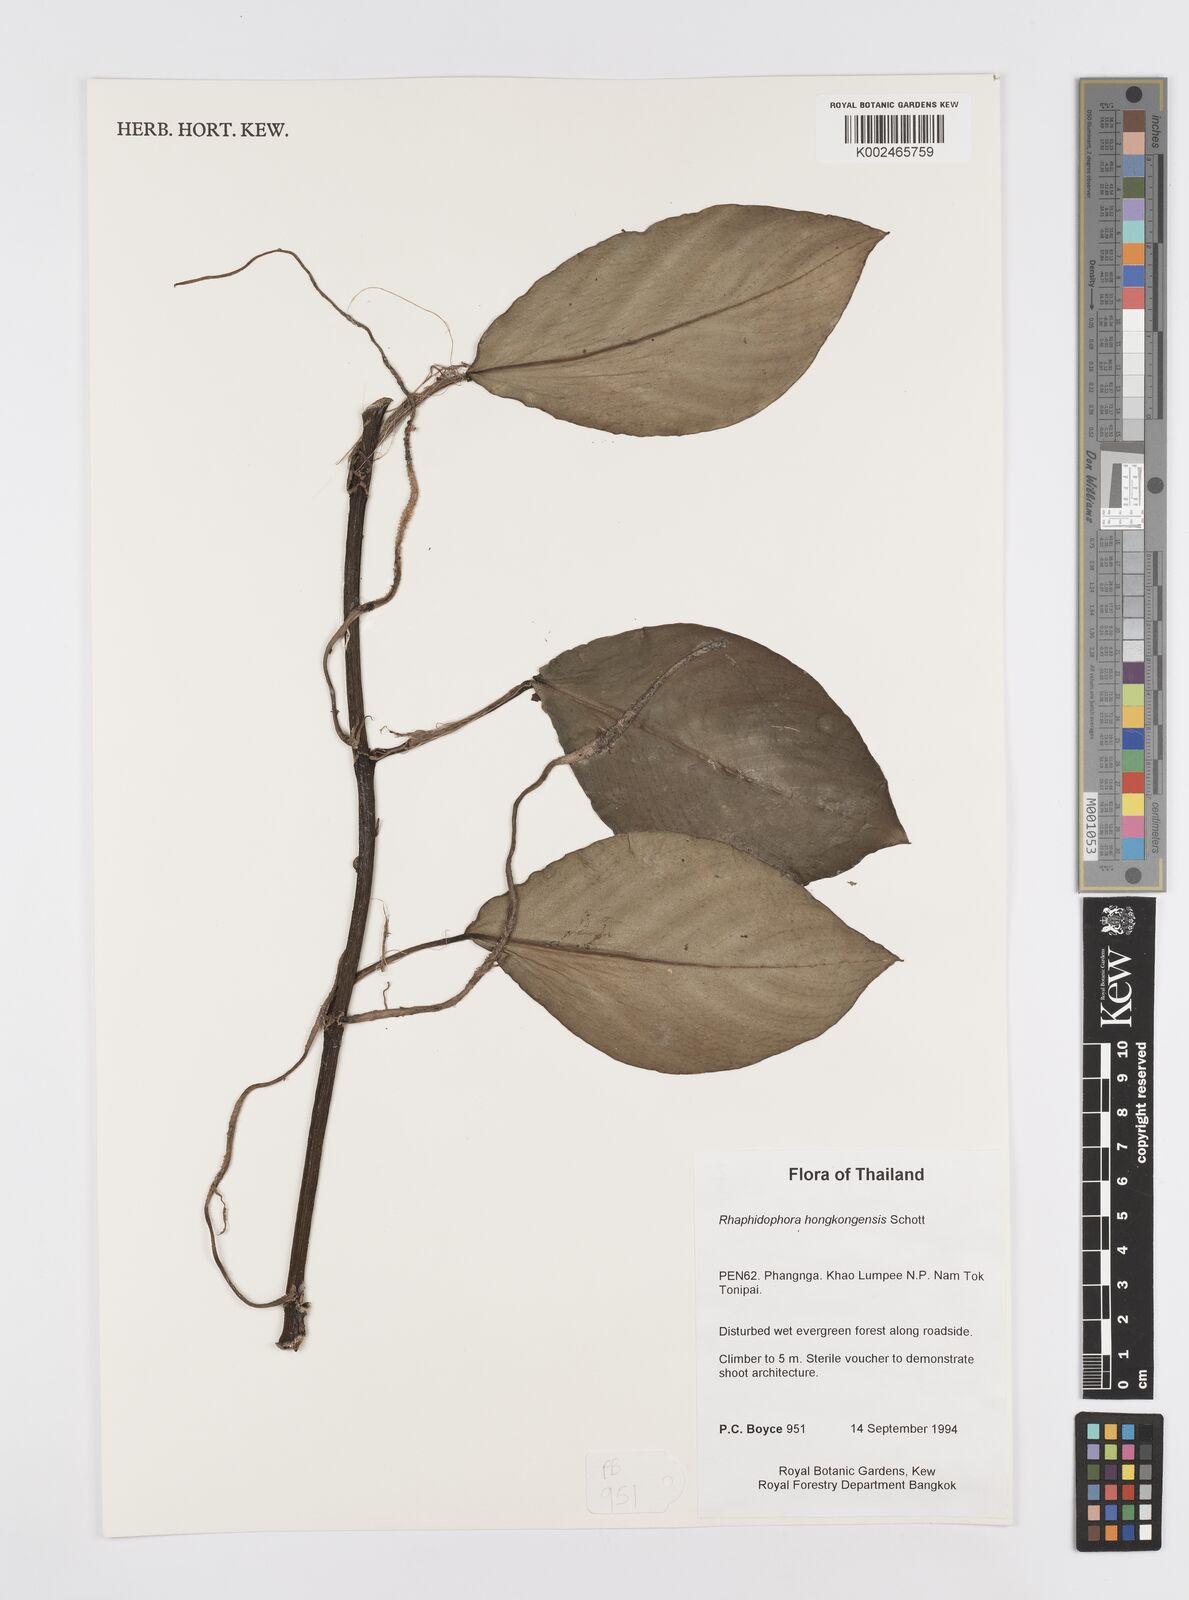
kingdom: Plantae
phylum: Tracheophyta
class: Liliopsida
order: Alismatales
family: Araceae
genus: Rhaphidophora
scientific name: Rhaphidophora
